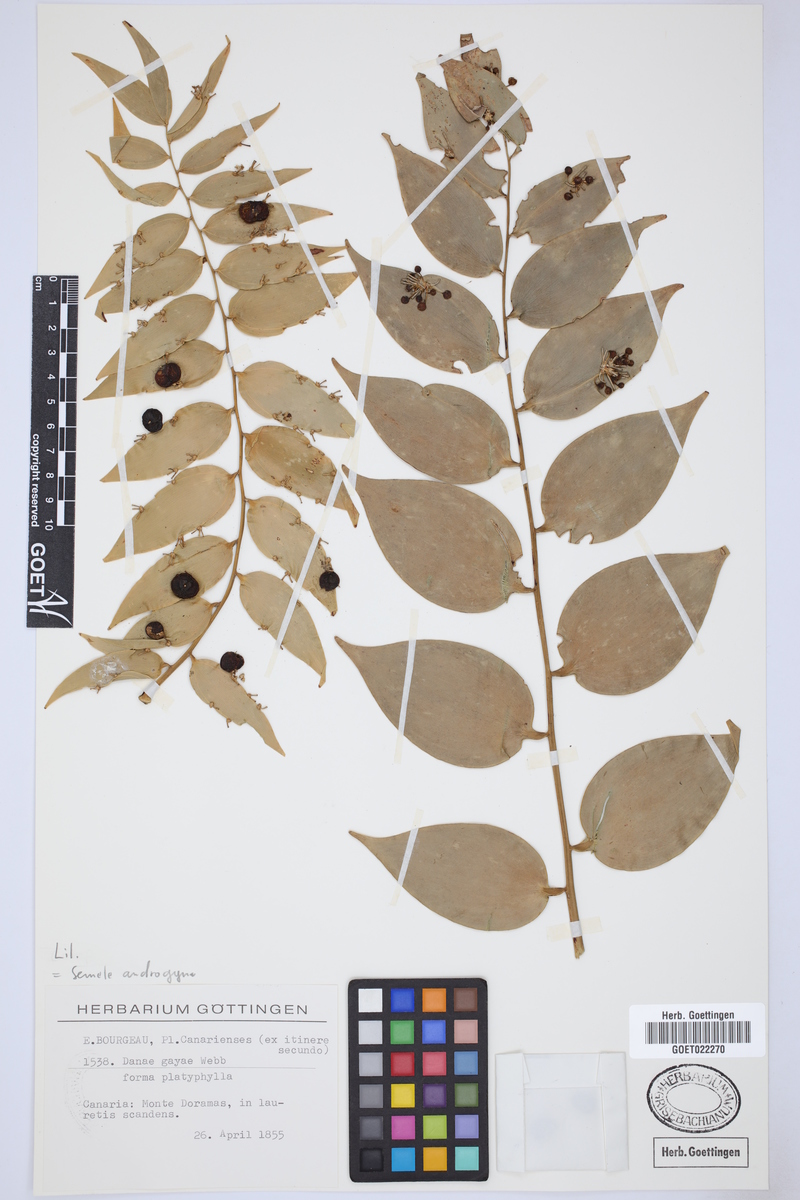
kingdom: Plantae
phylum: Tracheophyta
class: Liliopsida
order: Asparagales
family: Asparagaceae
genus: Semele
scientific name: Semele androgyna
